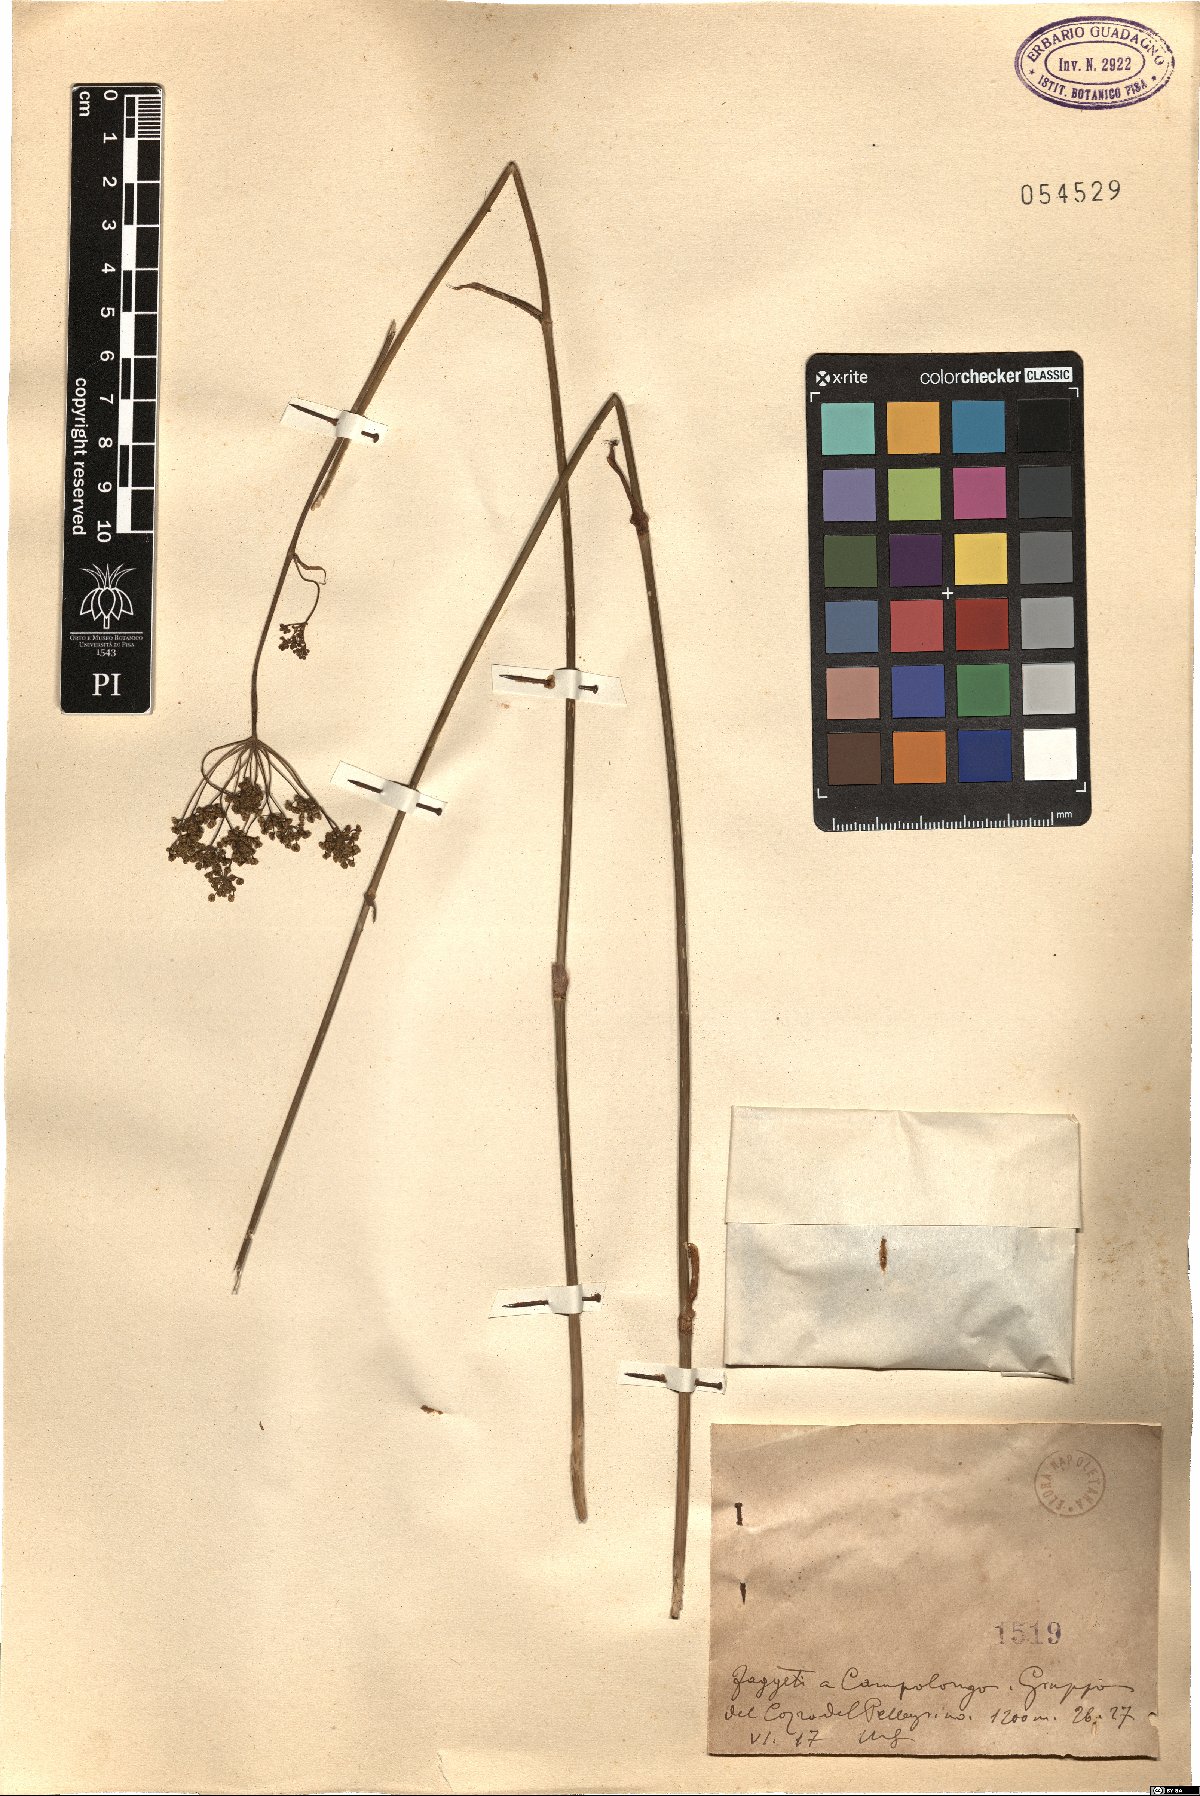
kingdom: Plantae
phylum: Tracheophyta
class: Magnoliopsida
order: Apiales
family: Apiaceae
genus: Thapsia
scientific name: Thapsia
